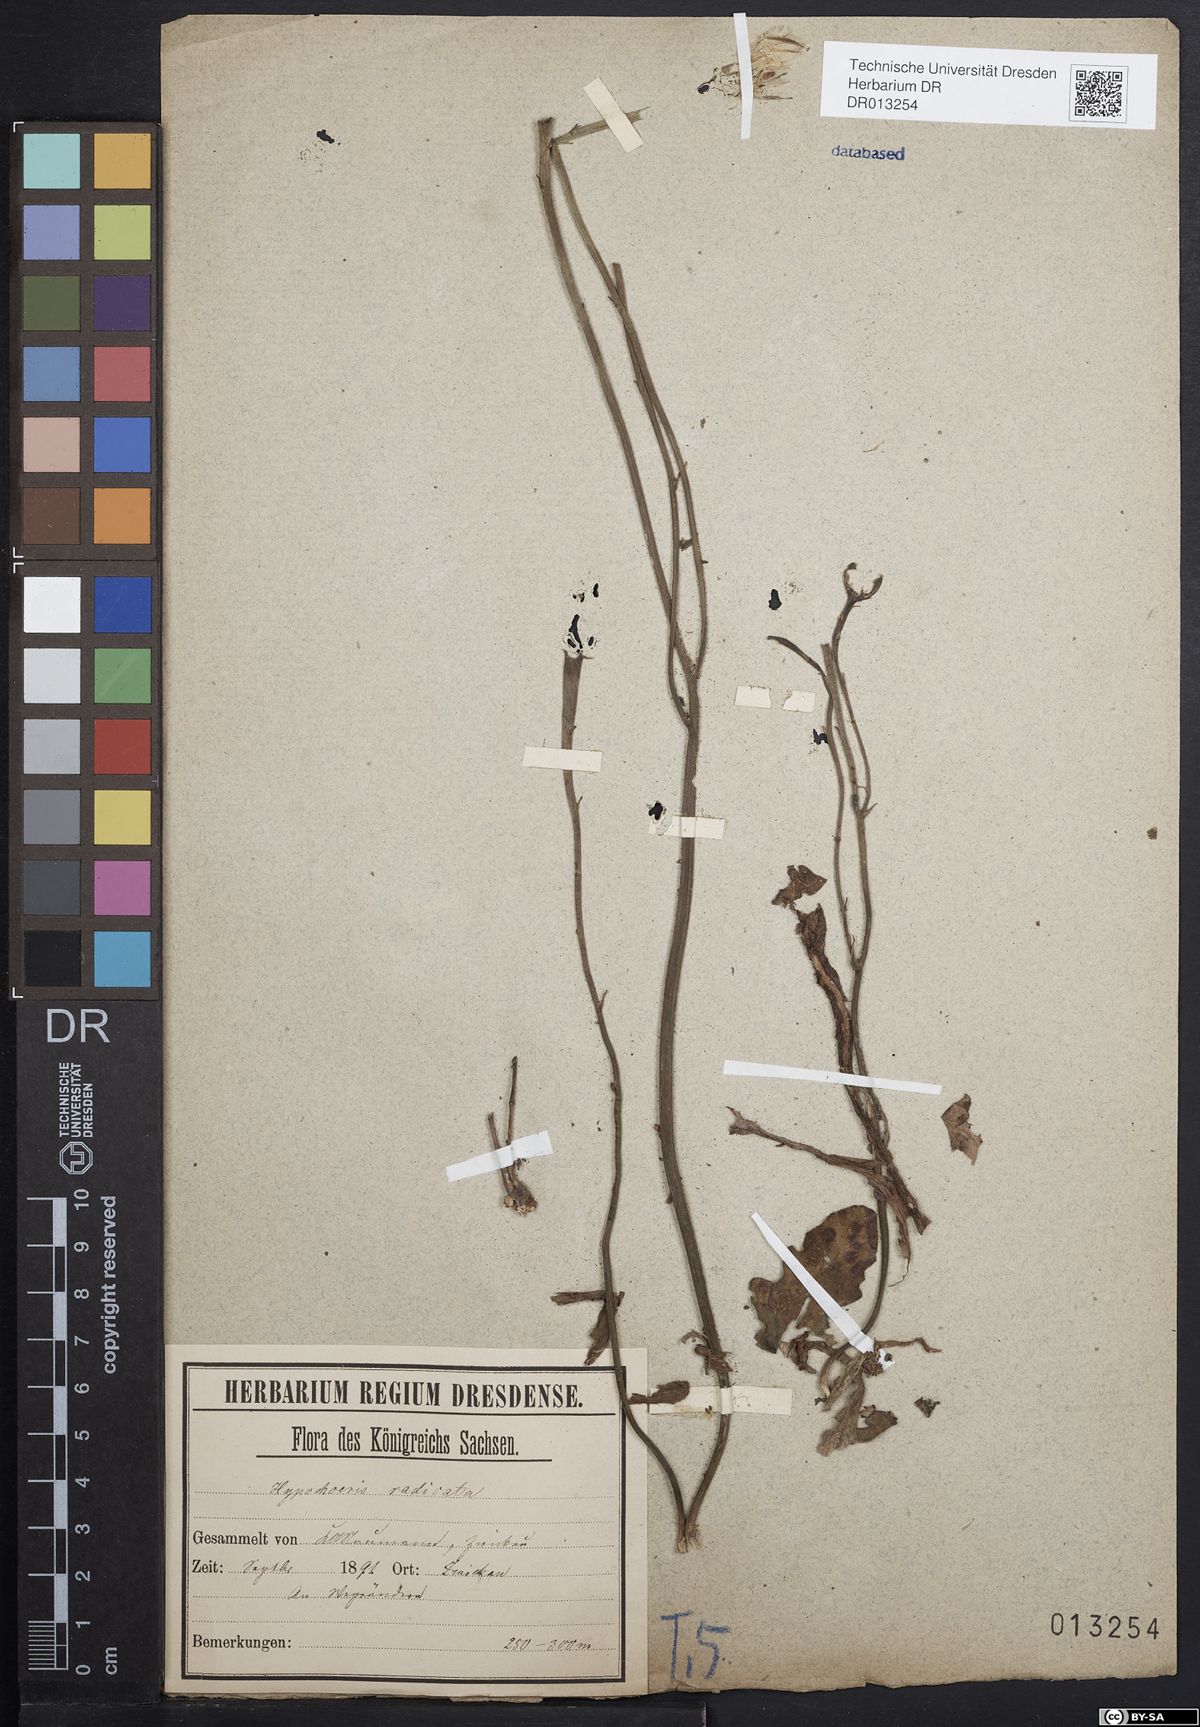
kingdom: Plantae
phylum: Tracheophyta
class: Magnoliopsida
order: Asterales
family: Asteraceae
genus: Hypochaeris
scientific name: Hypochaeris radicata
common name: Flatweed
